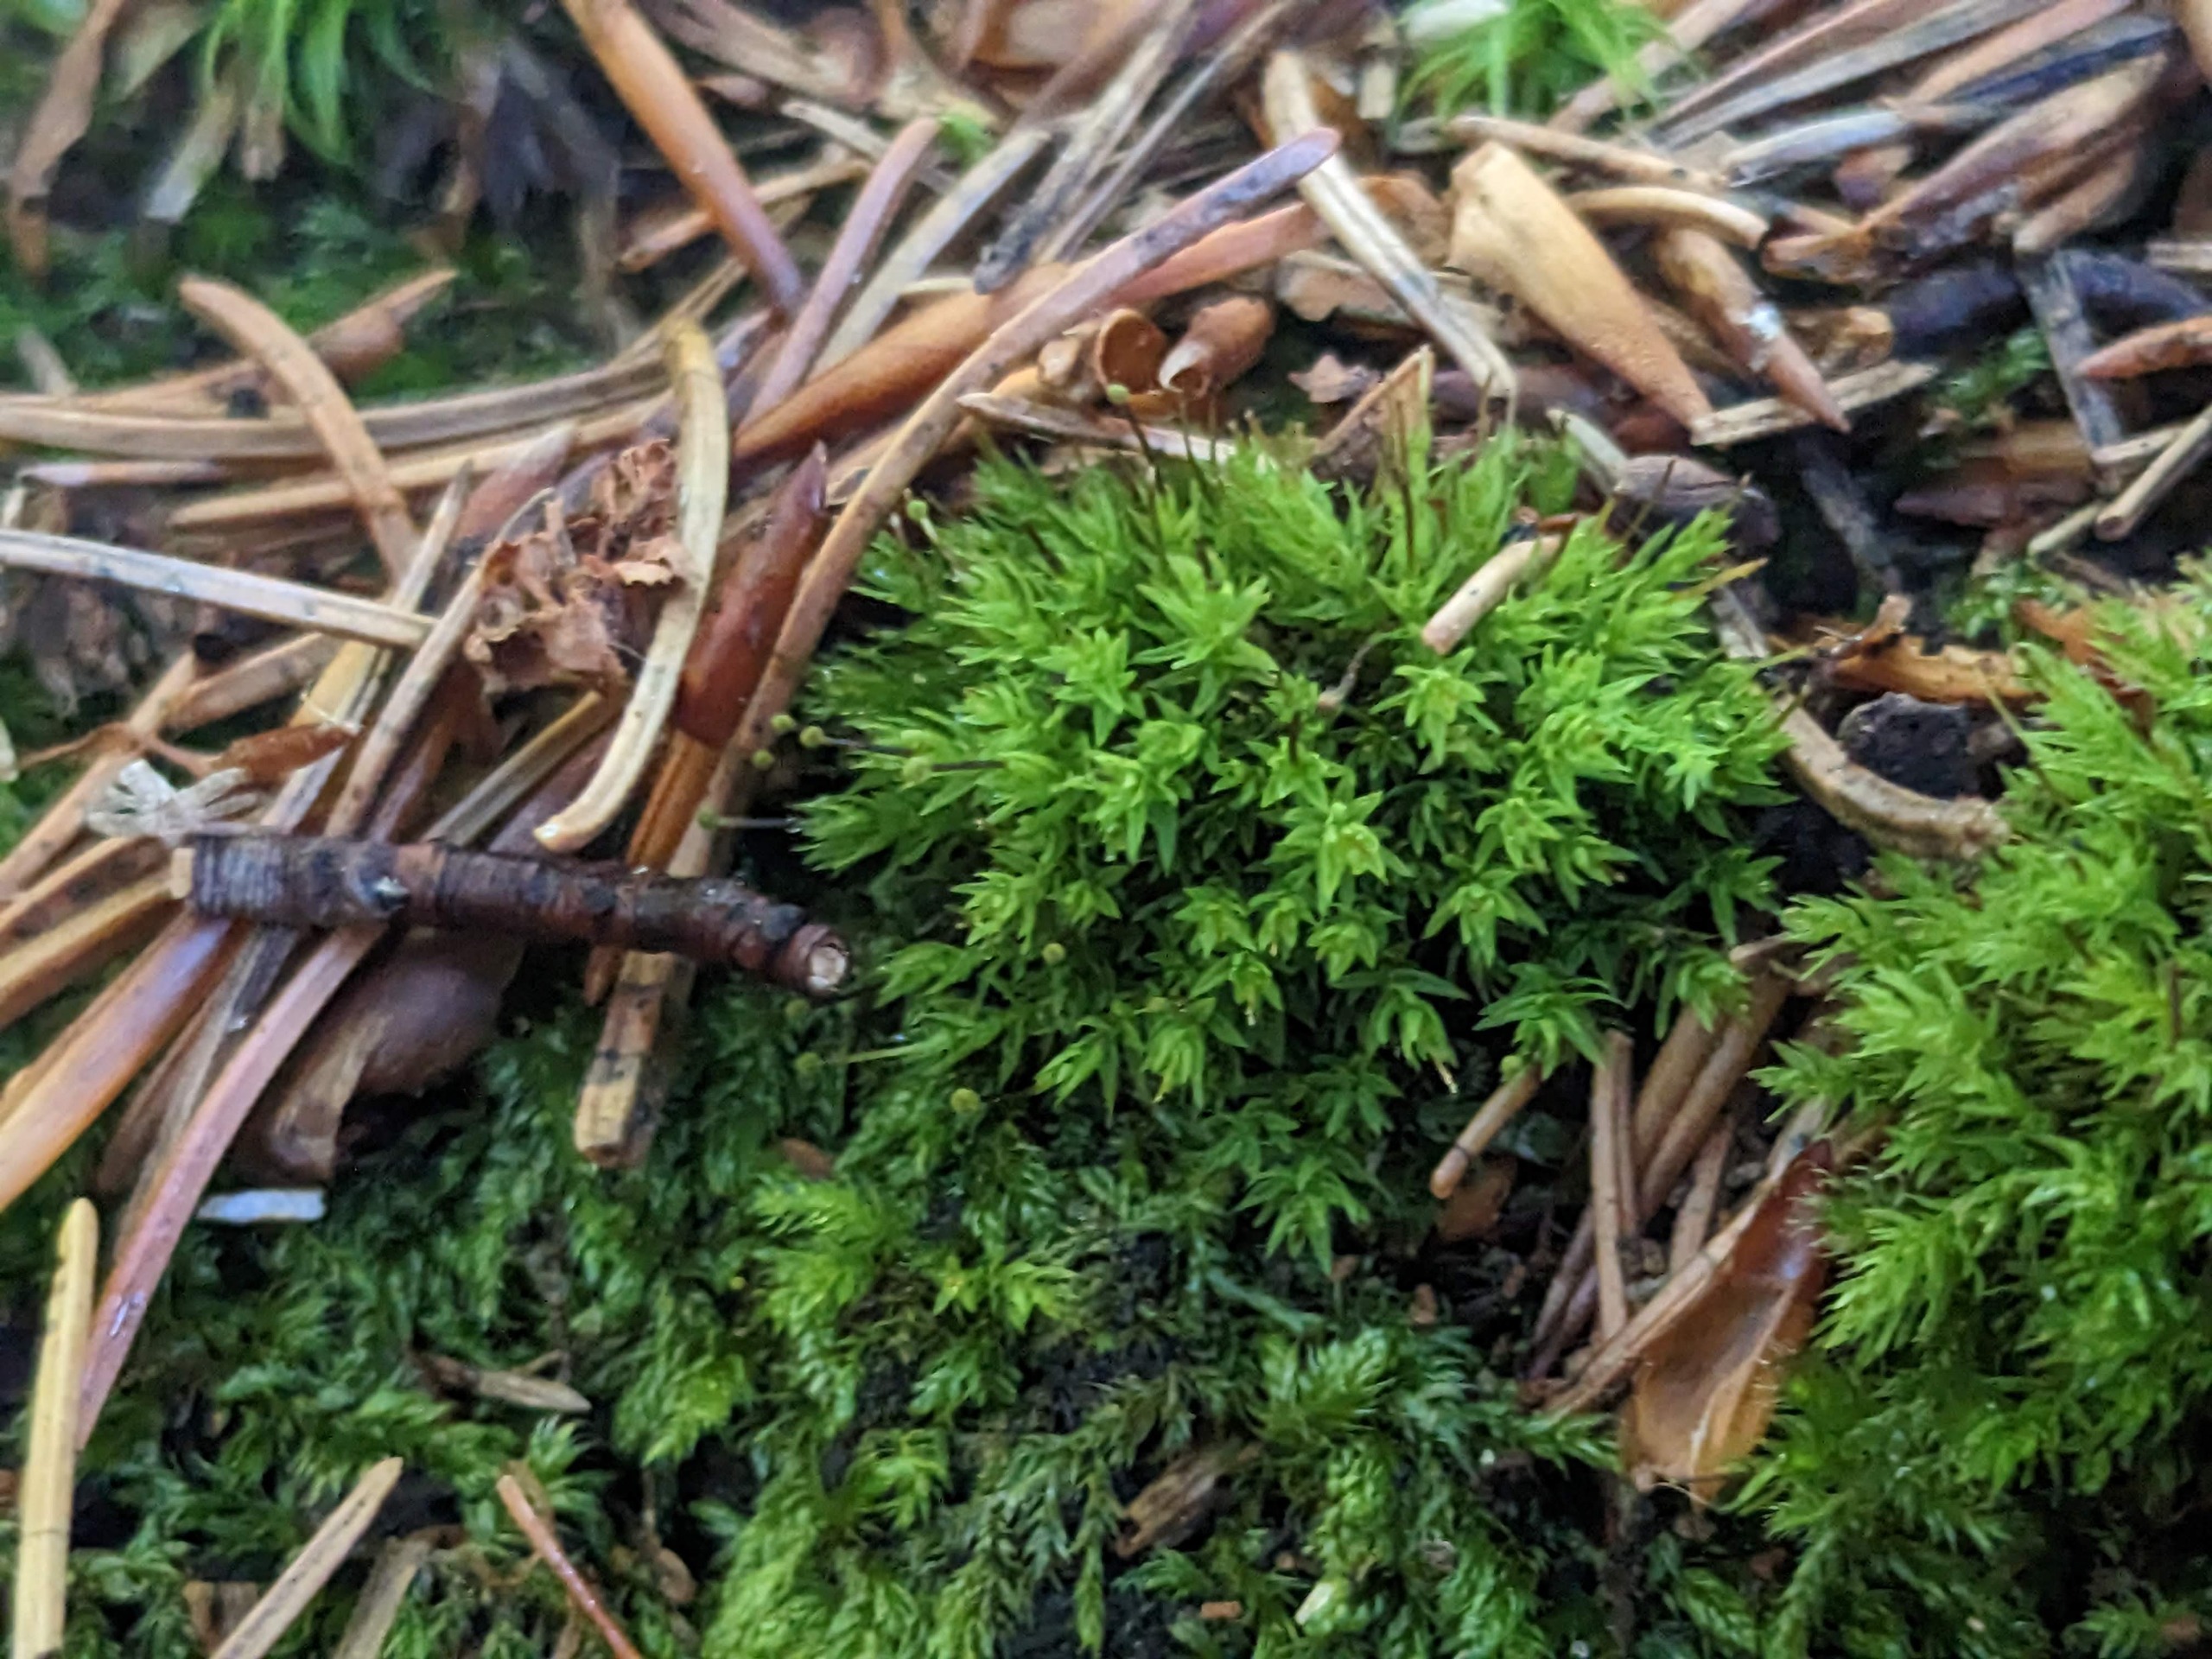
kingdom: Plantae
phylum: Bryophyta
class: Bryopsida
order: Aulacomniales
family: Aulacomniaceae
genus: Aulacomnium
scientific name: Aulacomnium androgynum
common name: Kugle-filtmos
